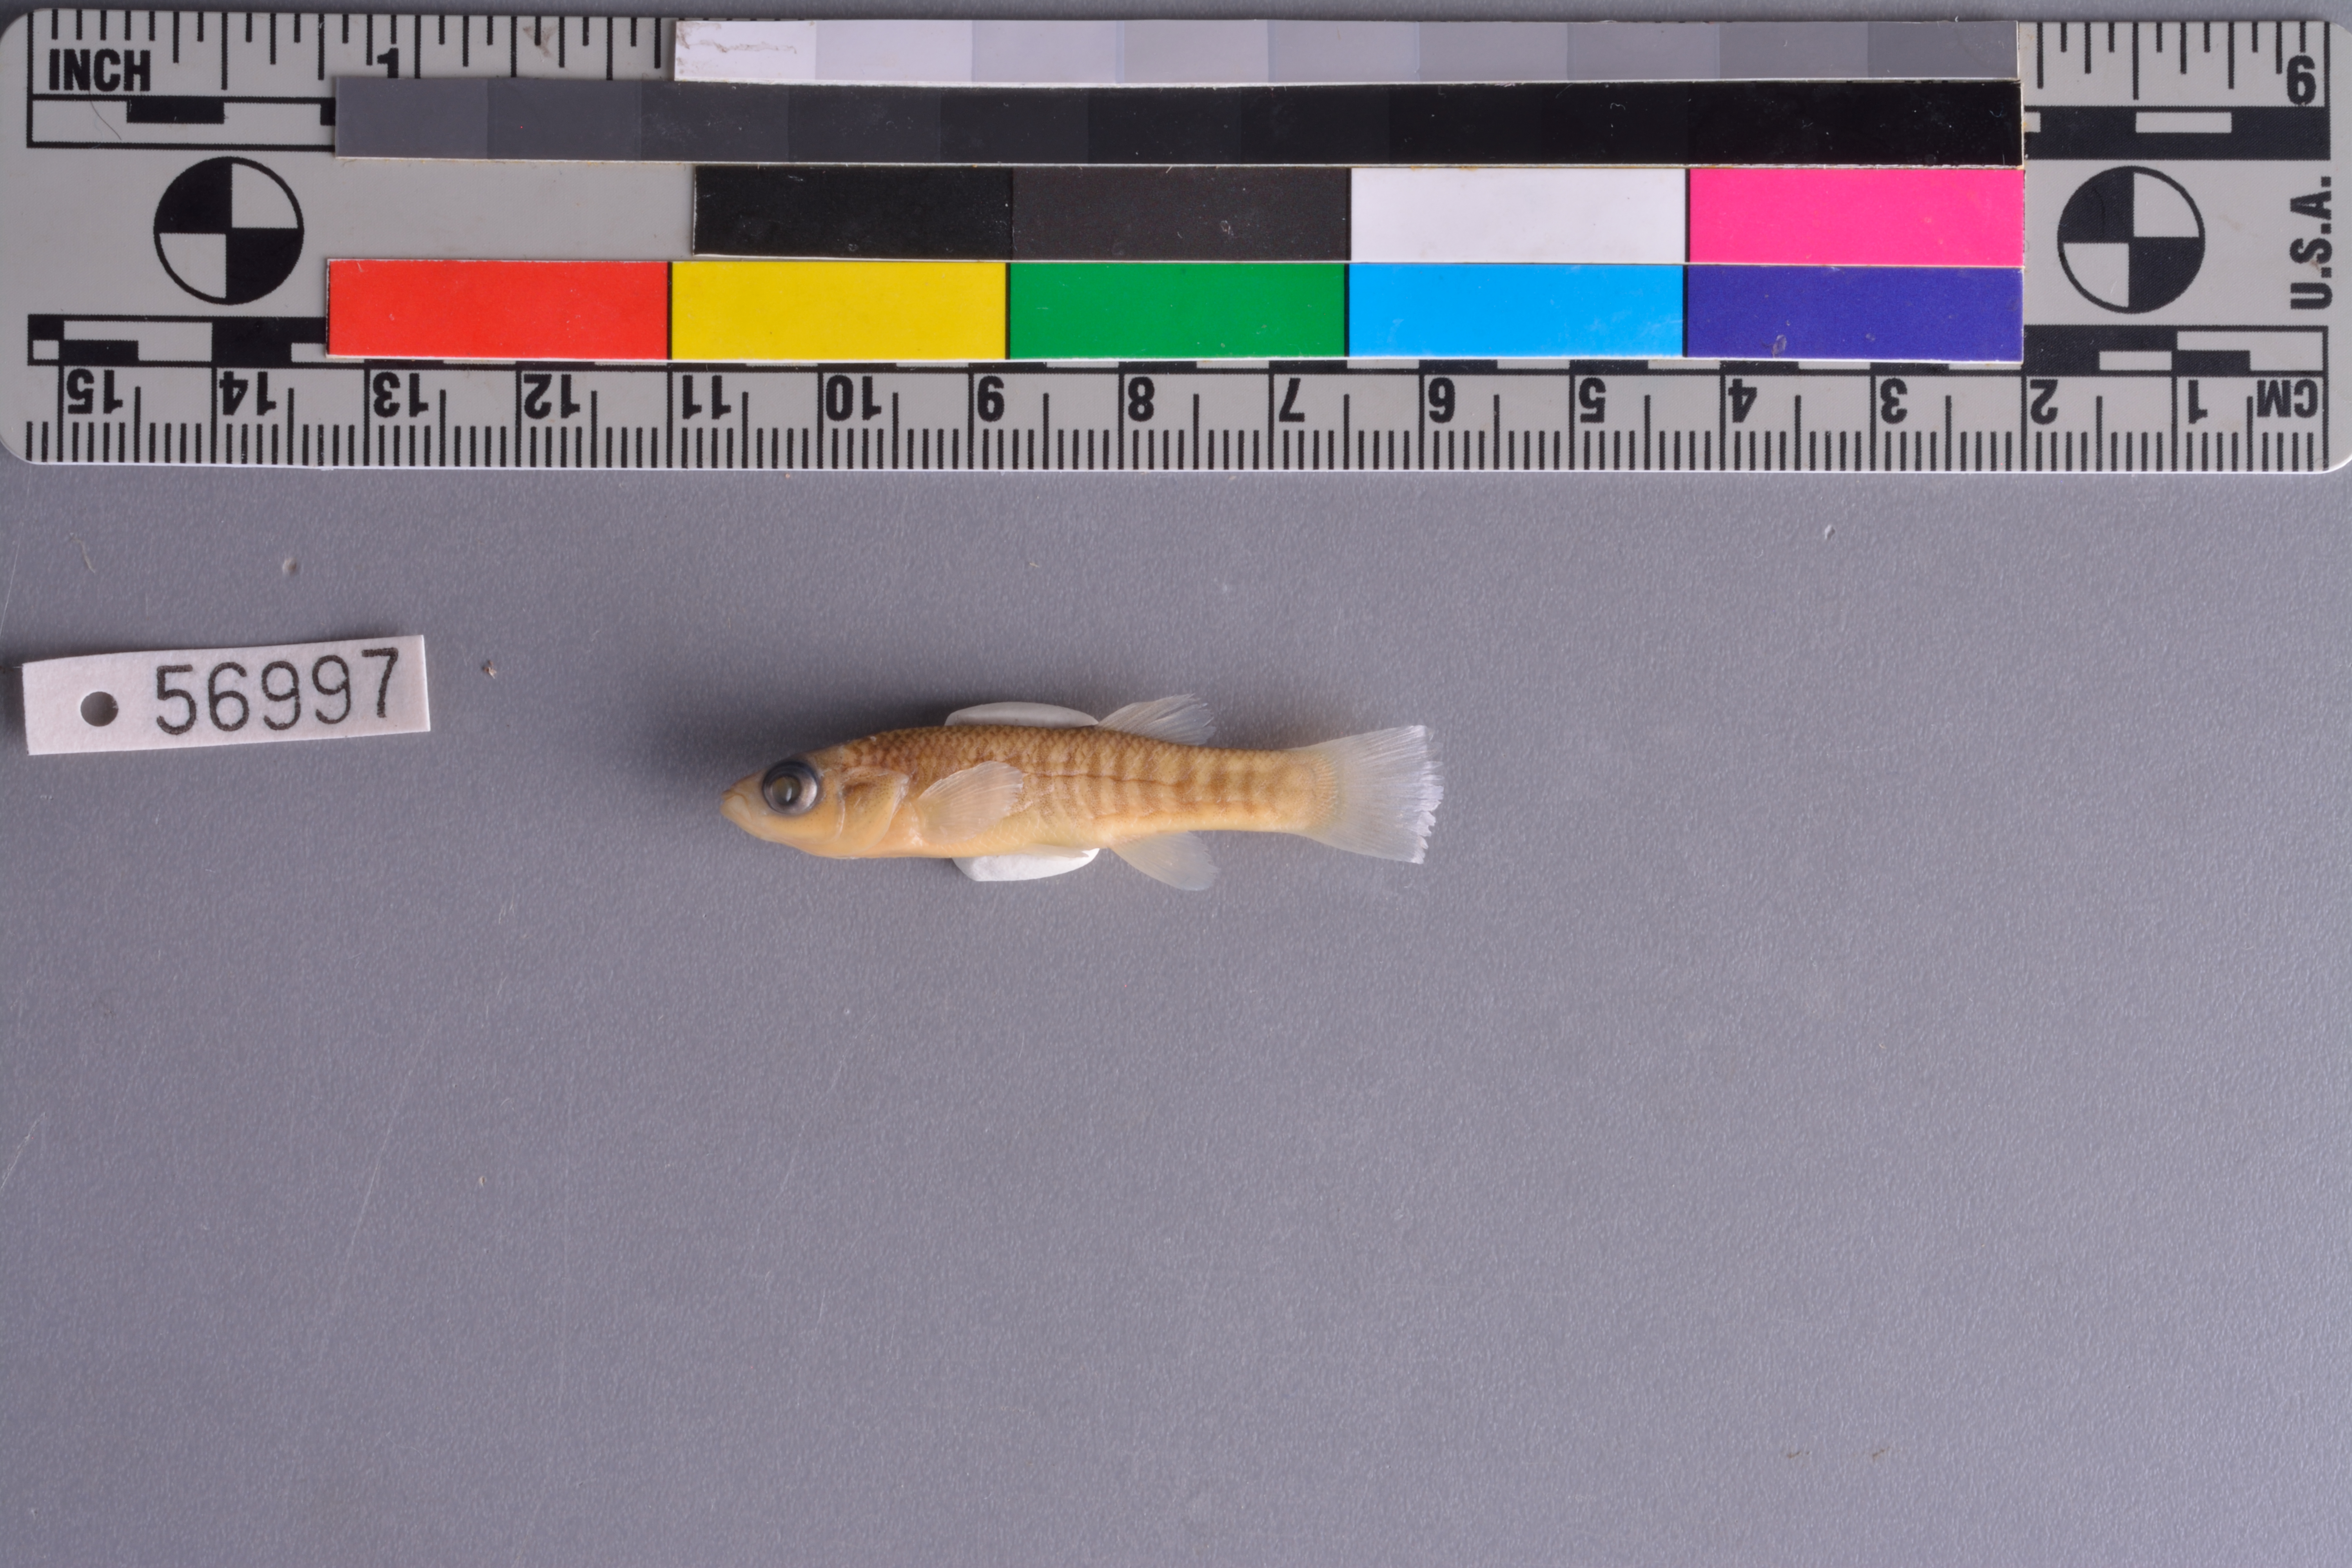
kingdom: Animalia
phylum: Chordata
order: Cyprinodontiformes
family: Fundulidae
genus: Fundulus
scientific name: Fundulus grandis
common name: Gulf killifish
